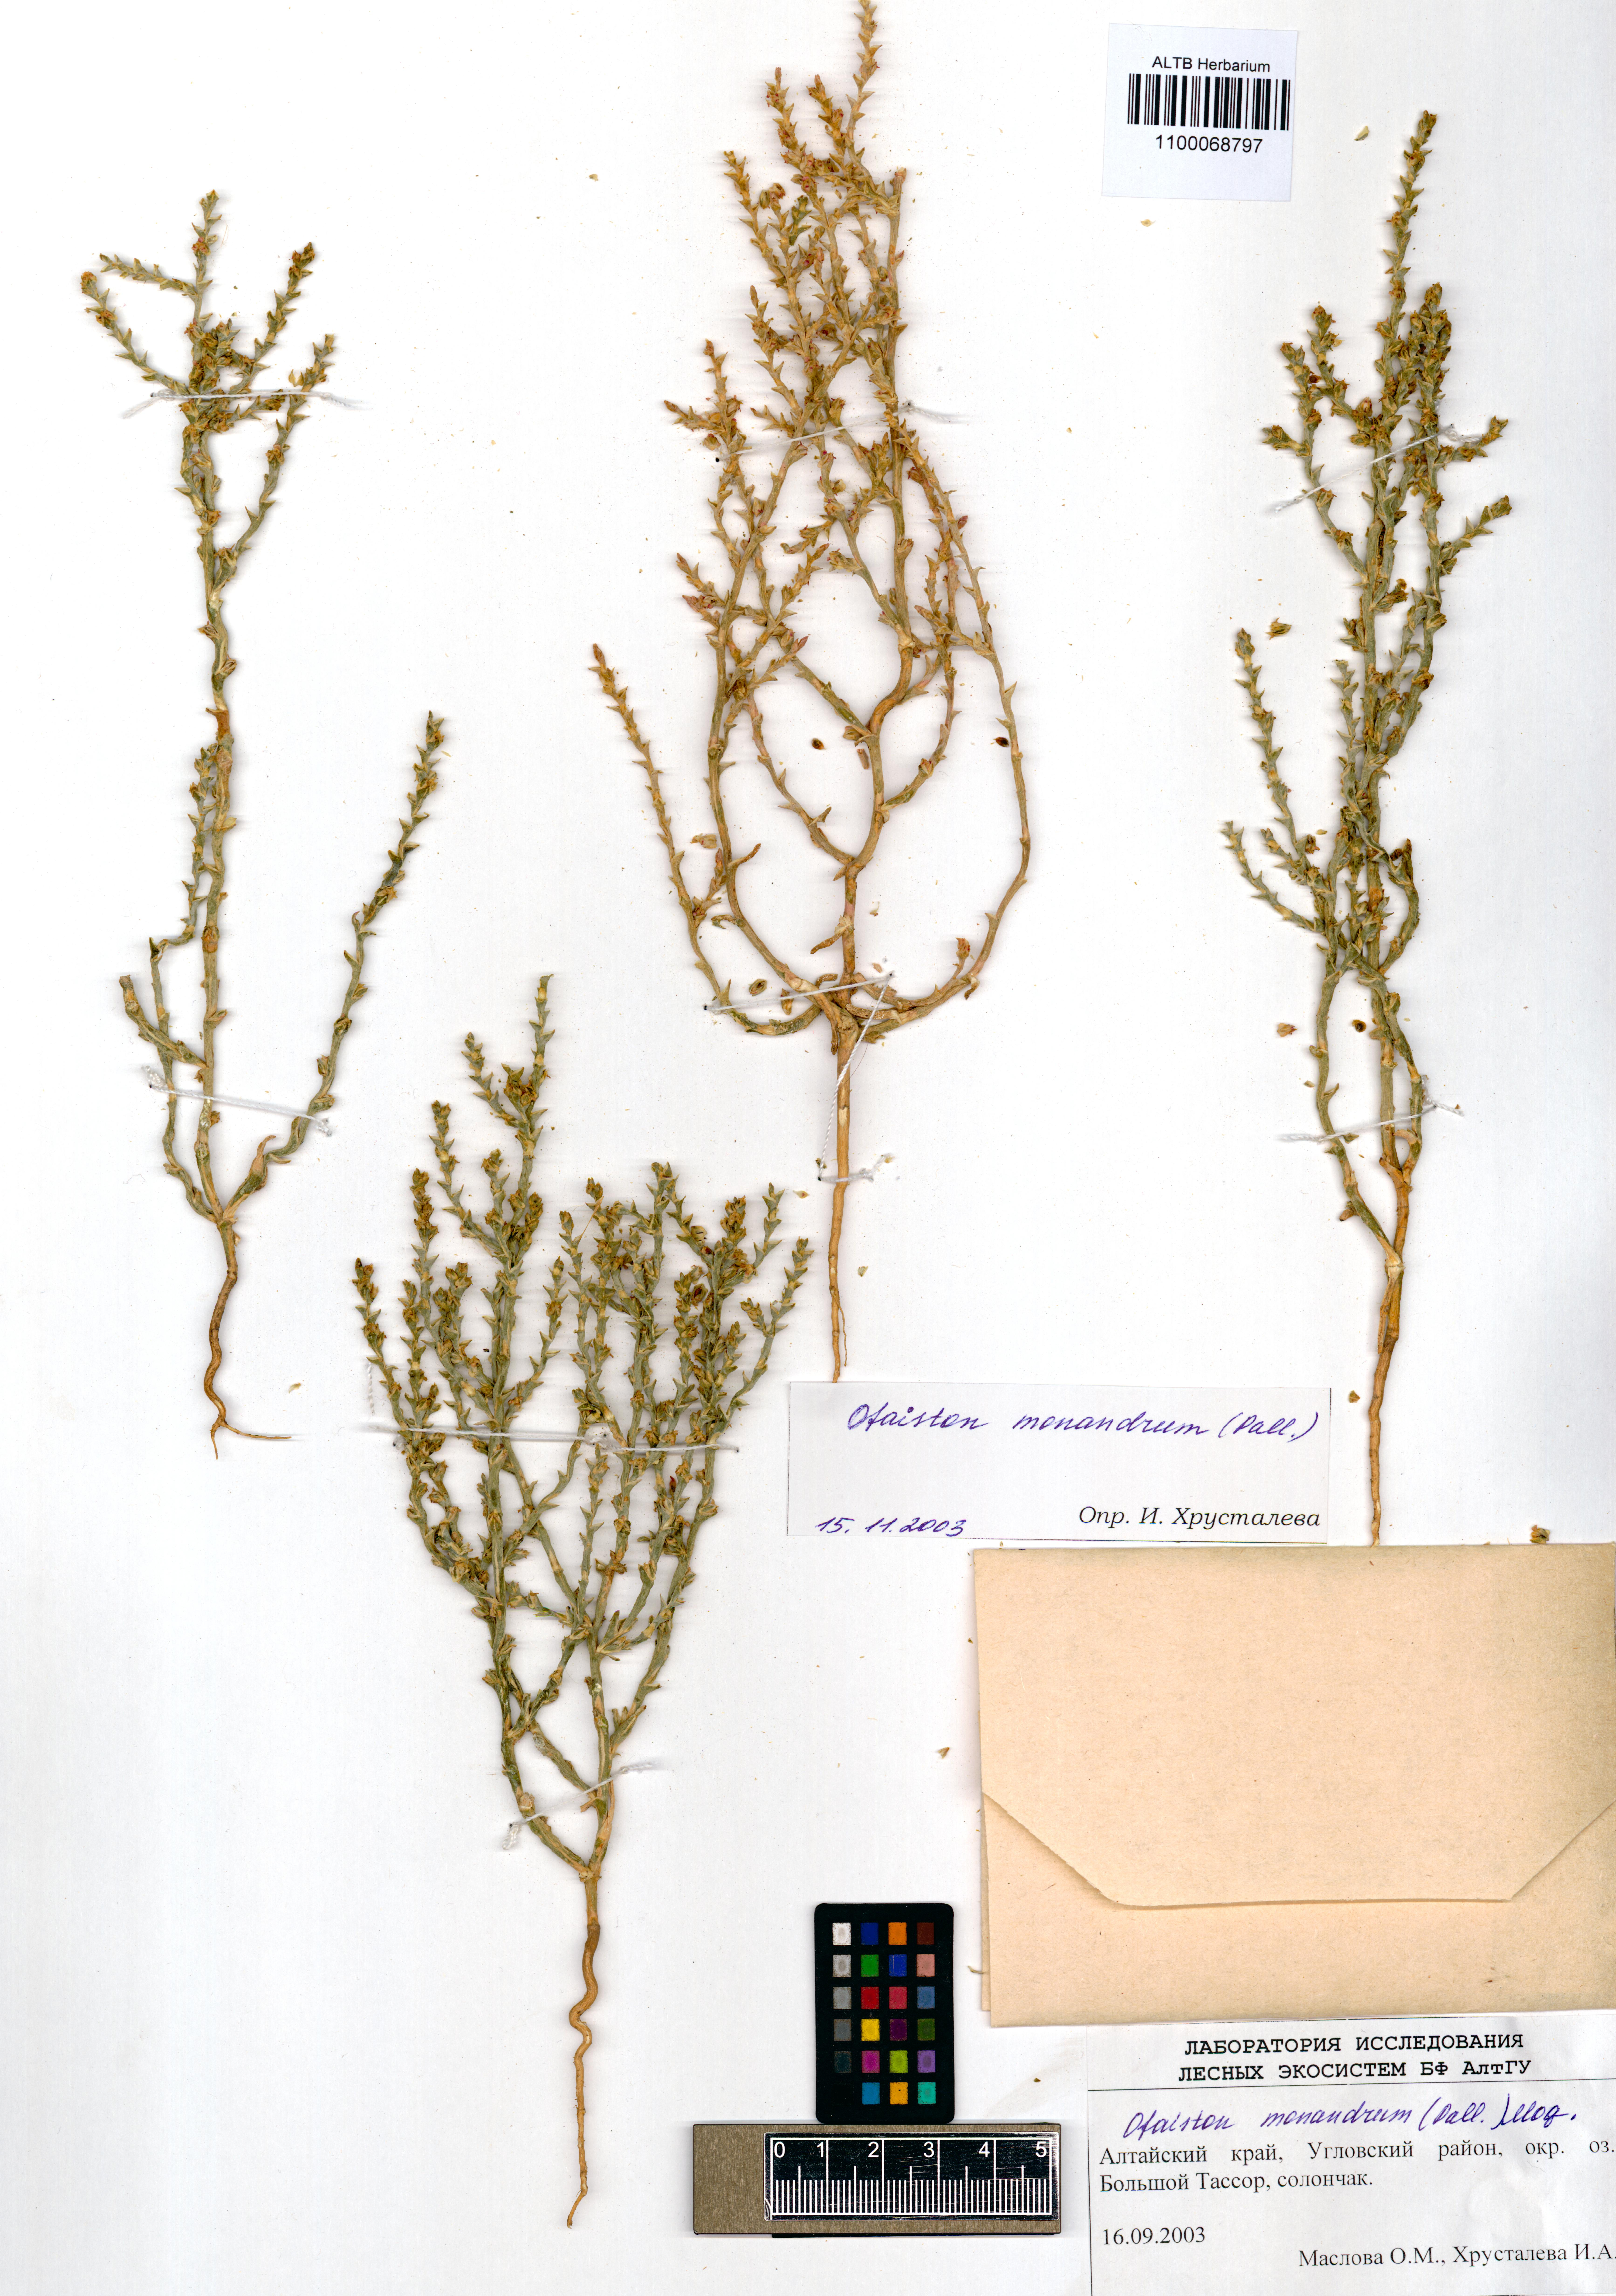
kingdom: Plantae
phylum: Tracheophyta
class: Magnoliopsida
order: Caryophyllales
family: Amaranthaceae
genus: Ofaiston
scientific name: Ofaiston monandrum
